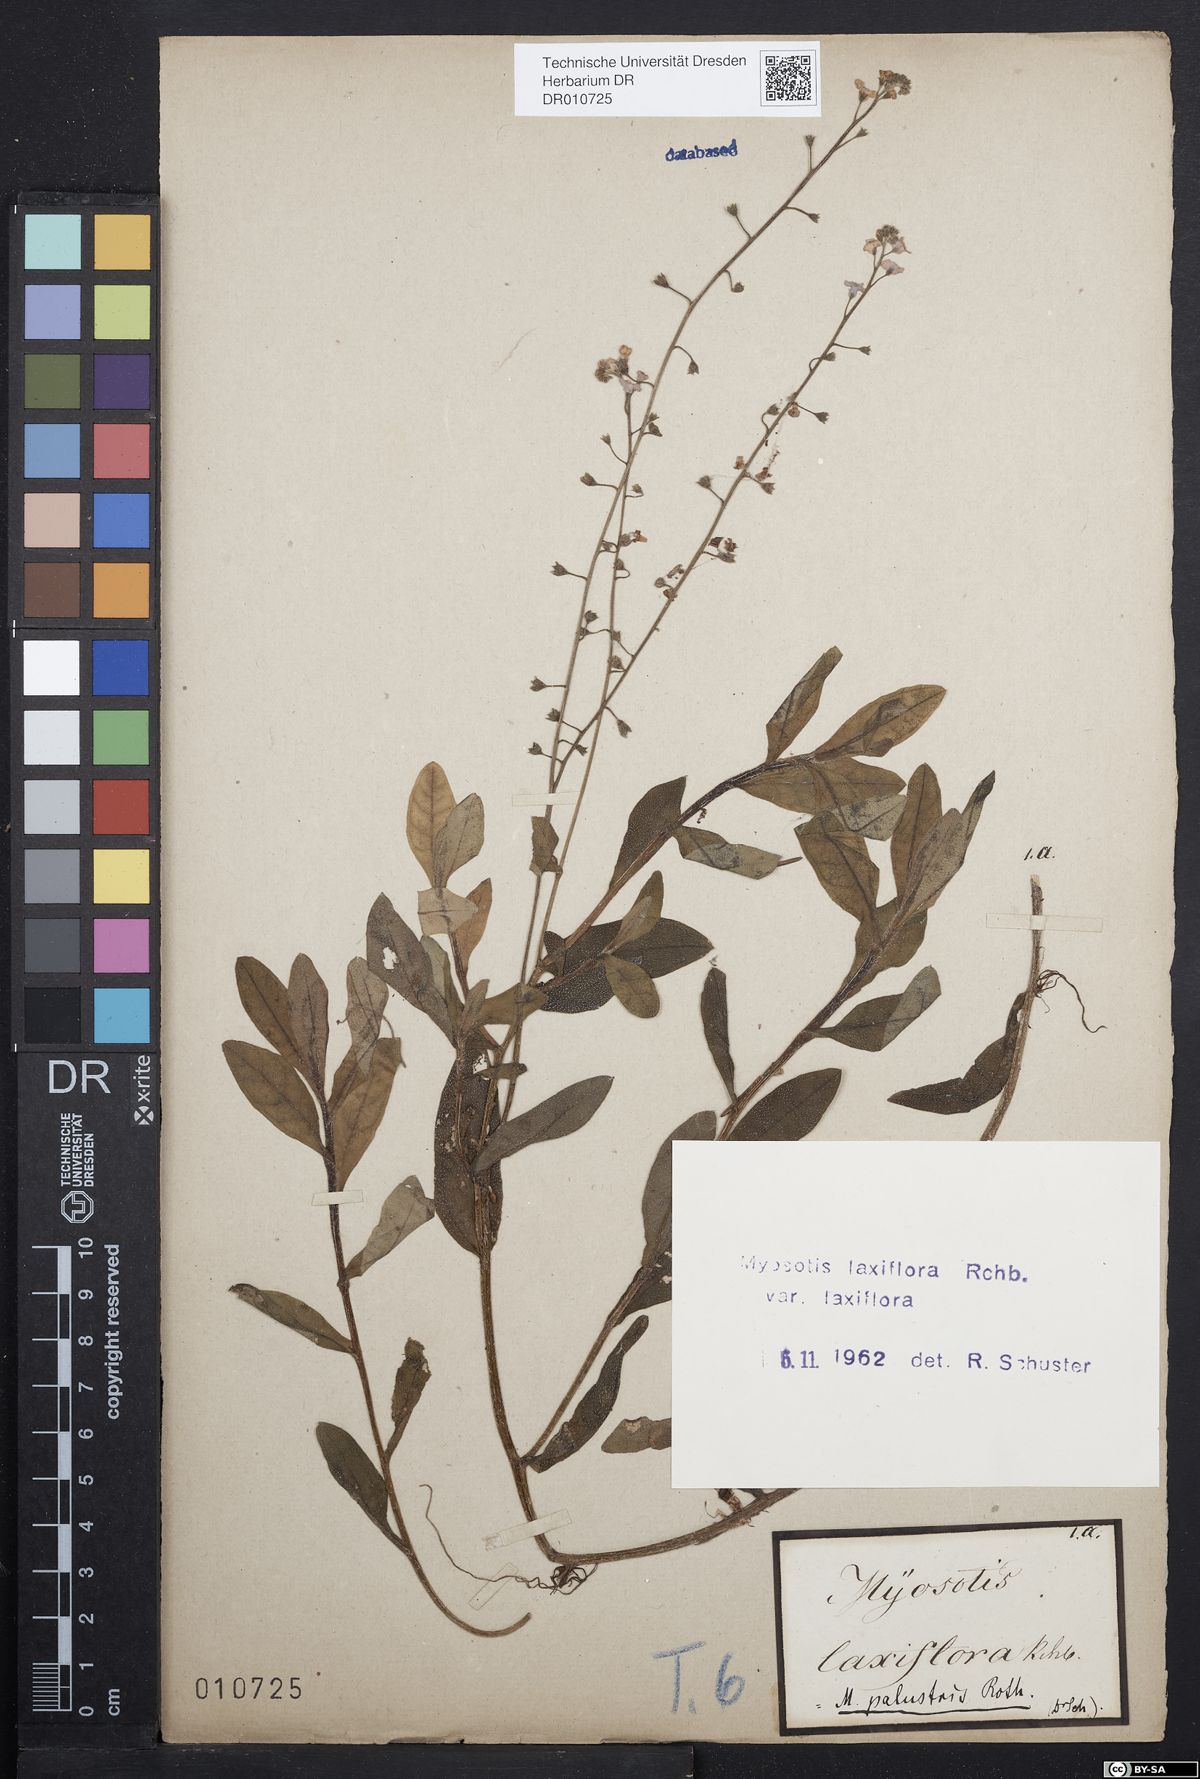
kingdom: Plantae
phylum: Tracheophyta
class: Magnoliopsida
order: Boraginales
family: Boraginaceae
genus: Myosotis
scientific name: Myosotis scorpioides
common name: Water forget-me-not
